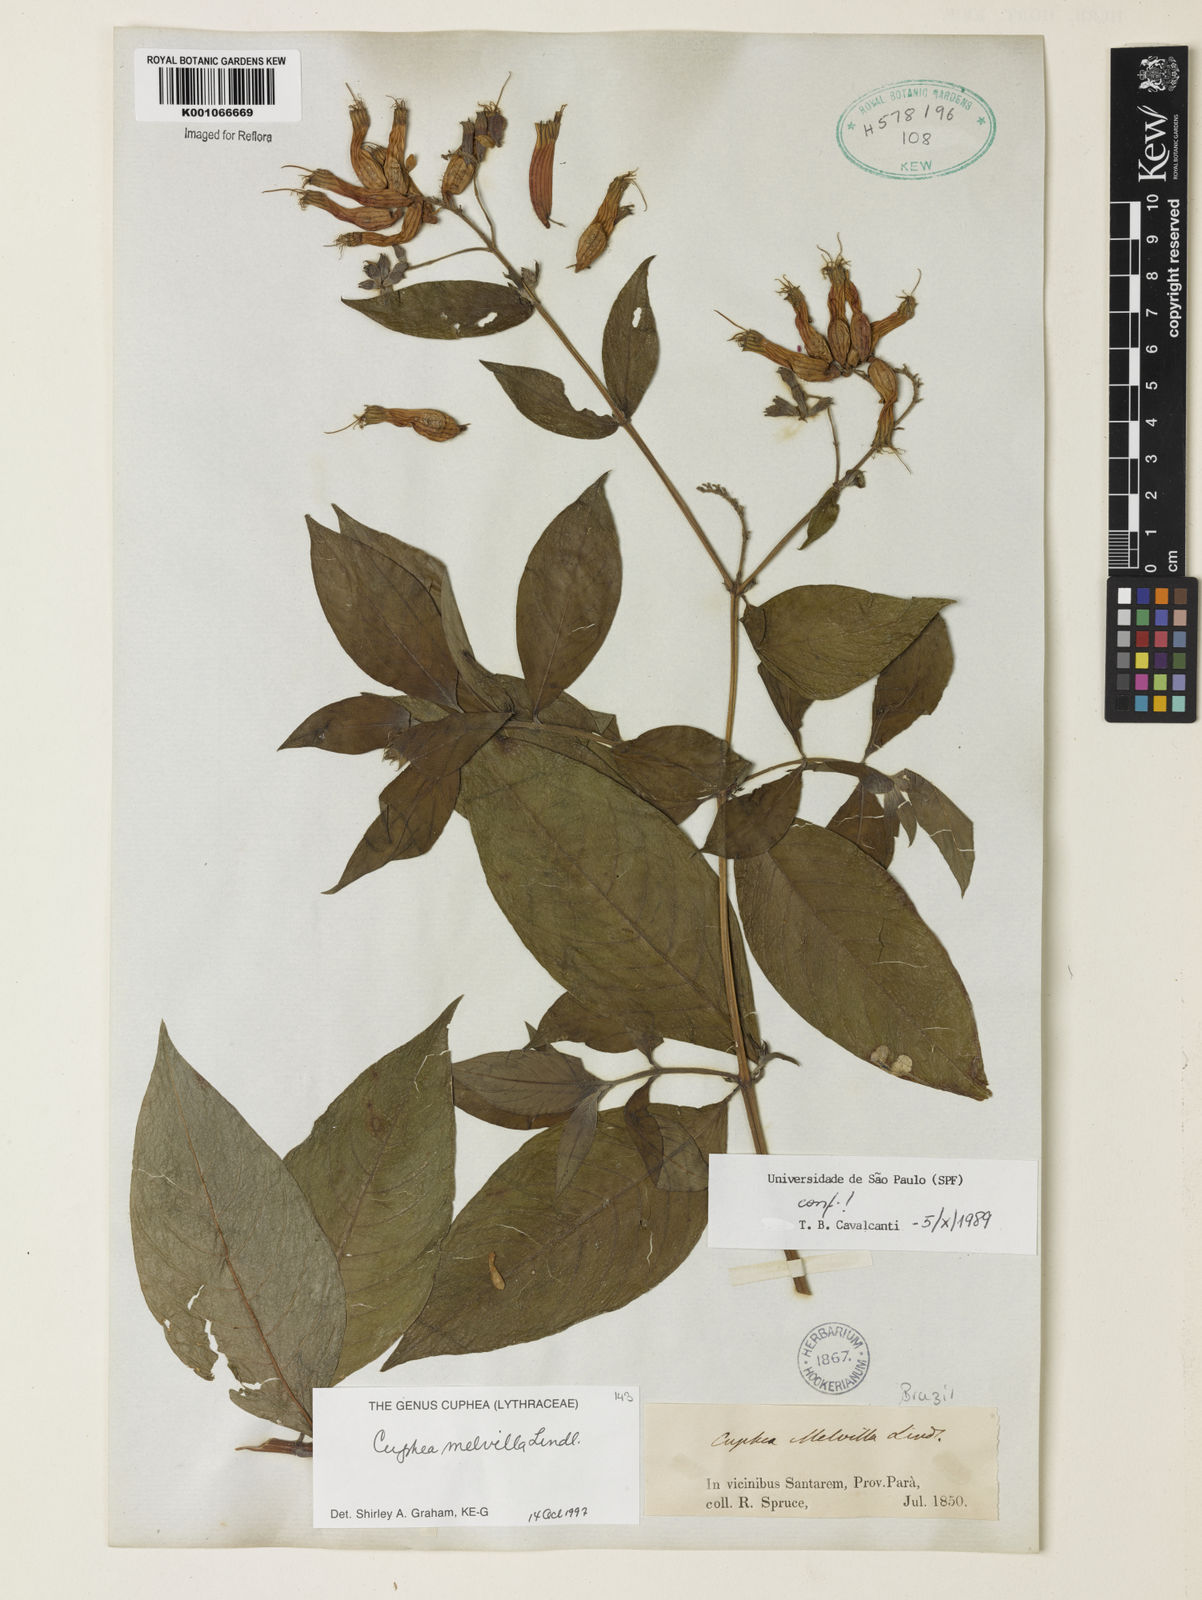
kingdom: Plantae
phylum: Tracheophyta
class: Magnoliopsida
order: Myrtales
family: Lythraceae
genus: Cuphea
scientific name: Cuphea melvilla
